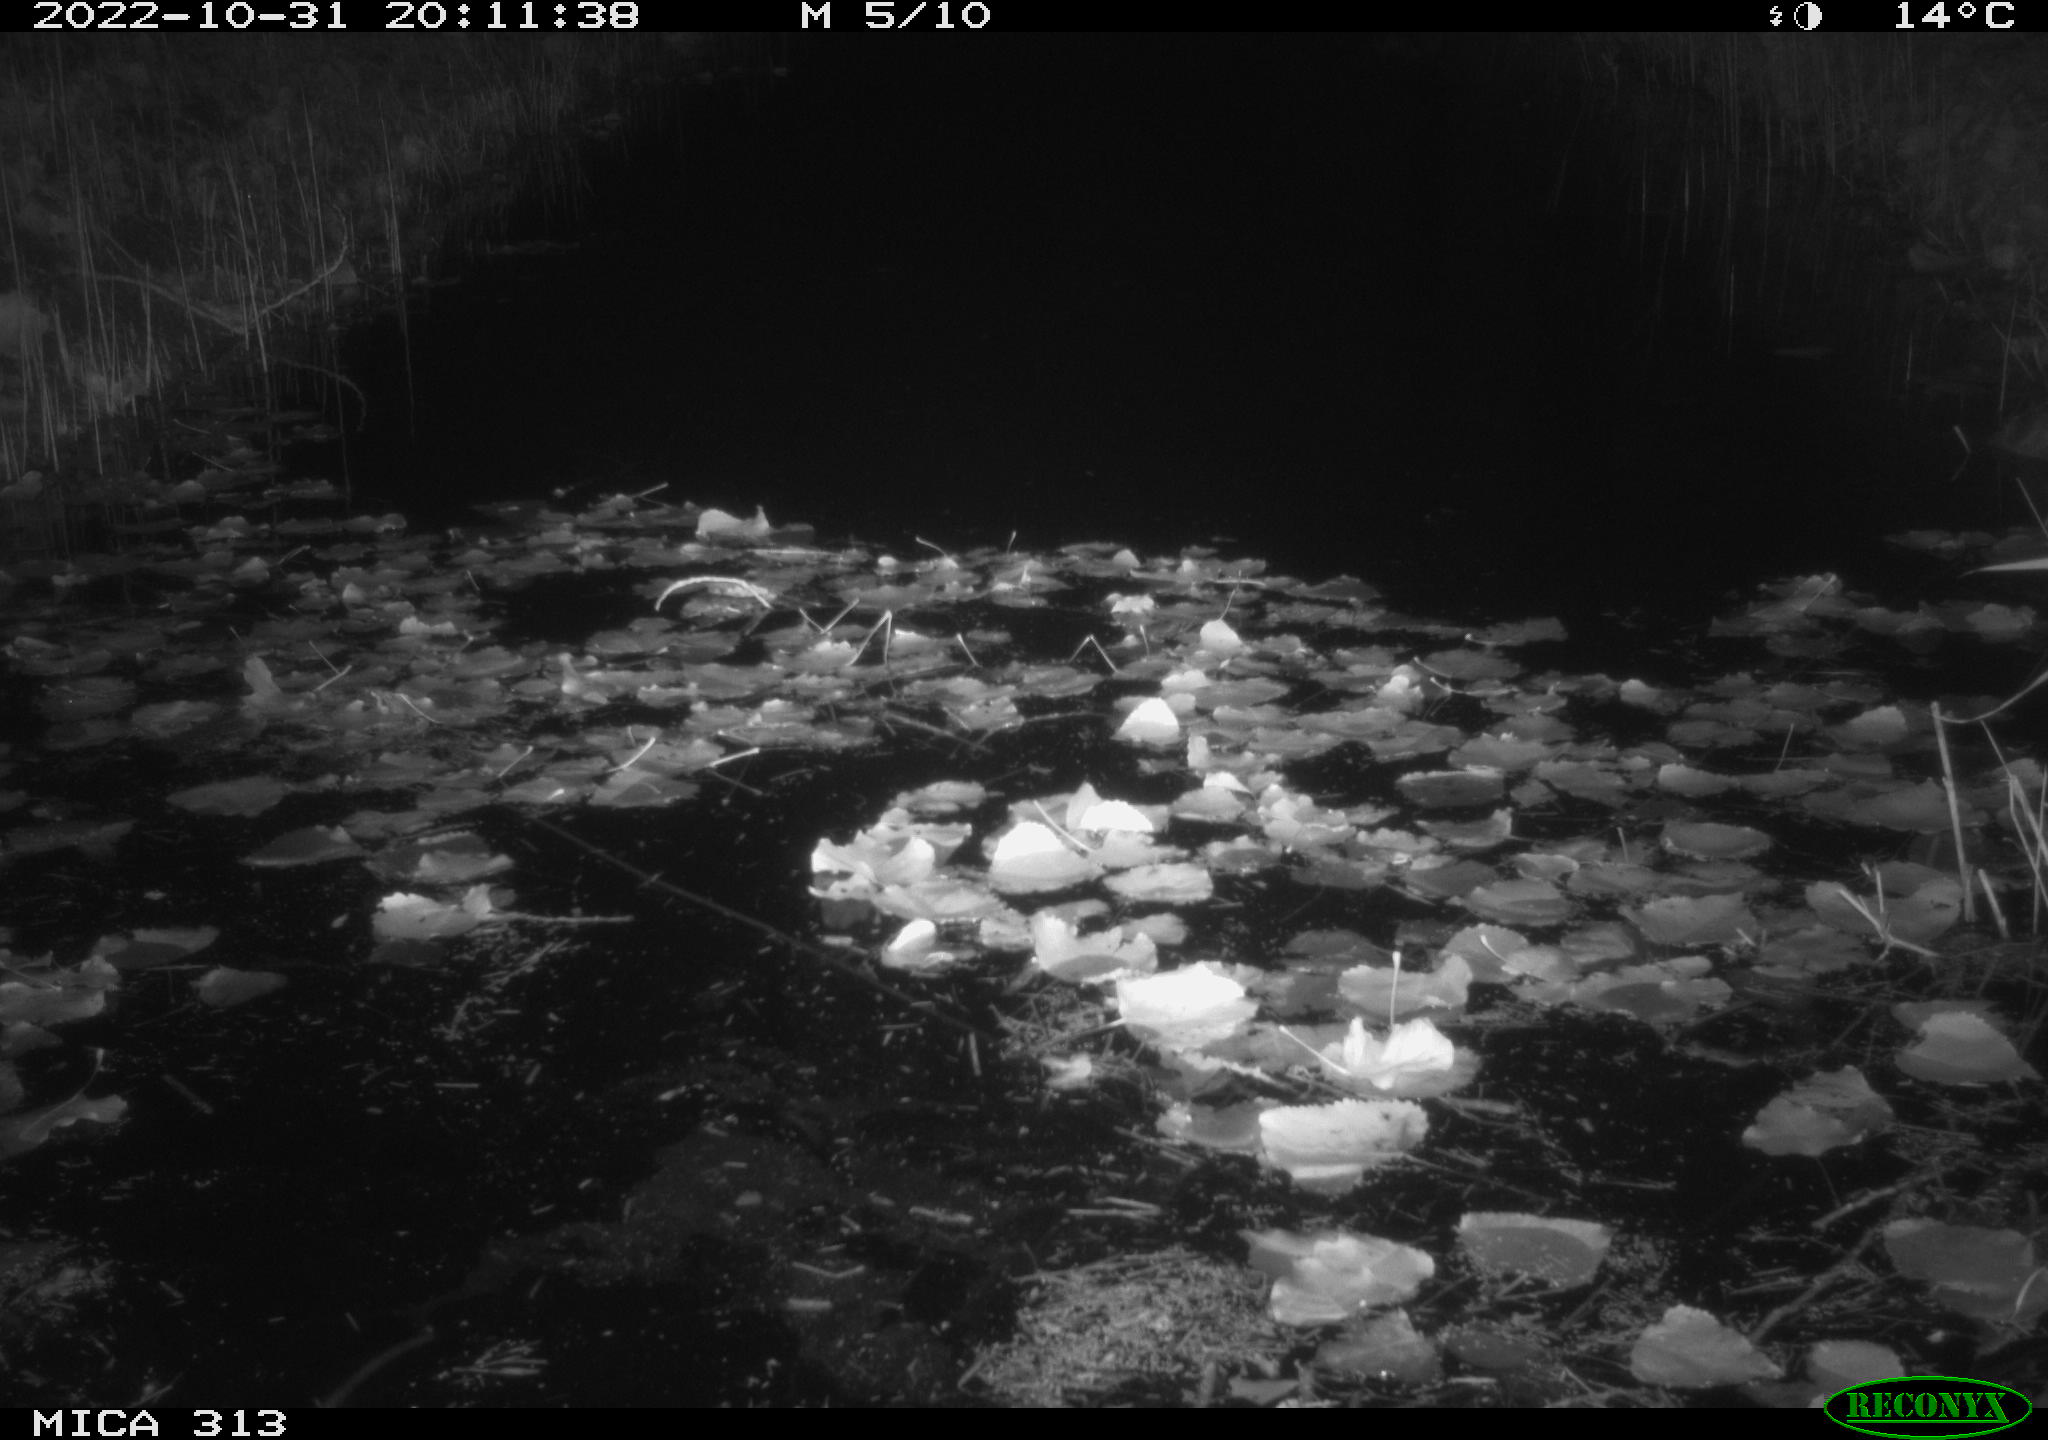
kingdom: Animalia
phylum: Chordata
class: Mammalia
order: Rodentia
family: Cricetidae
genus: Ondatra
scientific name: Ondatra zibethicus
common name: Muskrat
